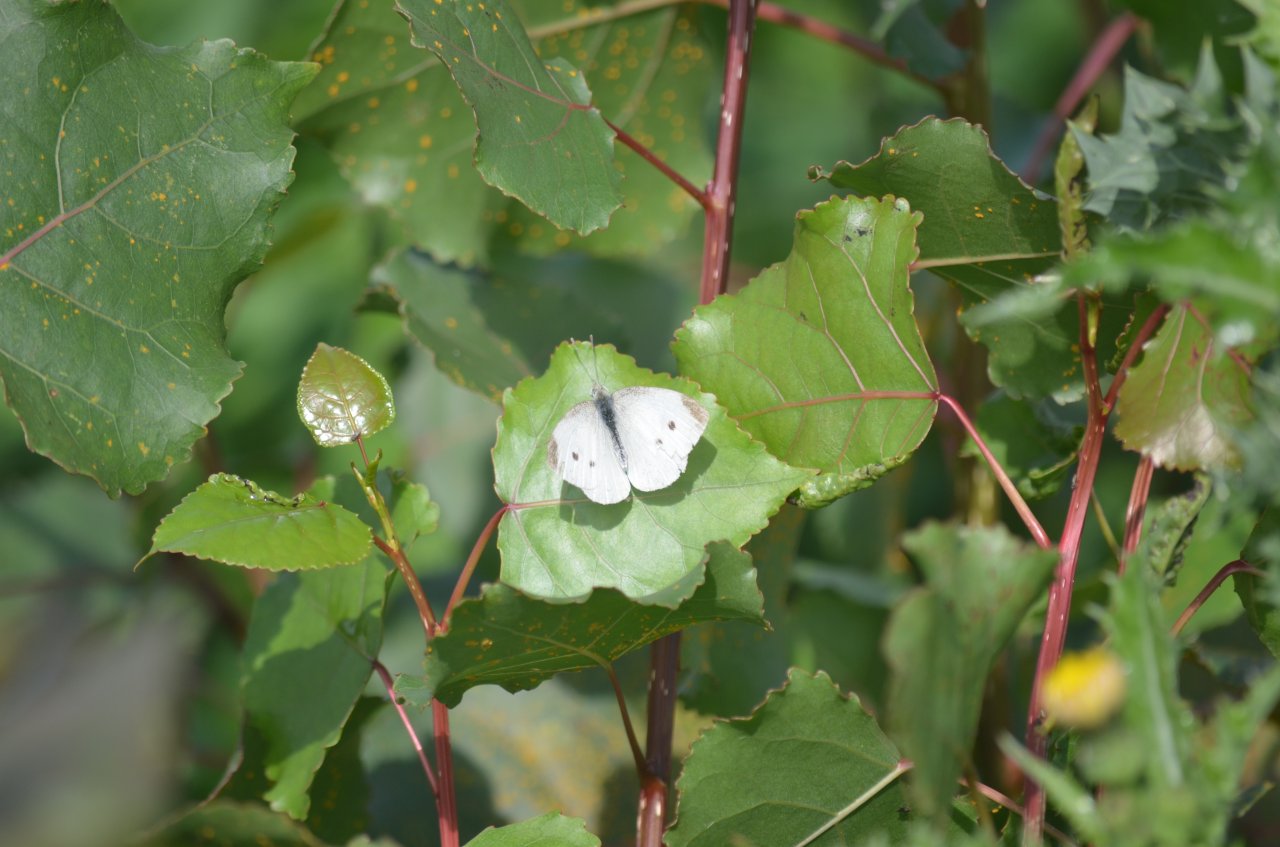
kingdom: Animalia
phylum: Arthropoda
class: Insecta
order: Lepidoptera
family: Pieridae
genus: Pieris
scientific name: Pieris rapae
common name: Cabbage White
